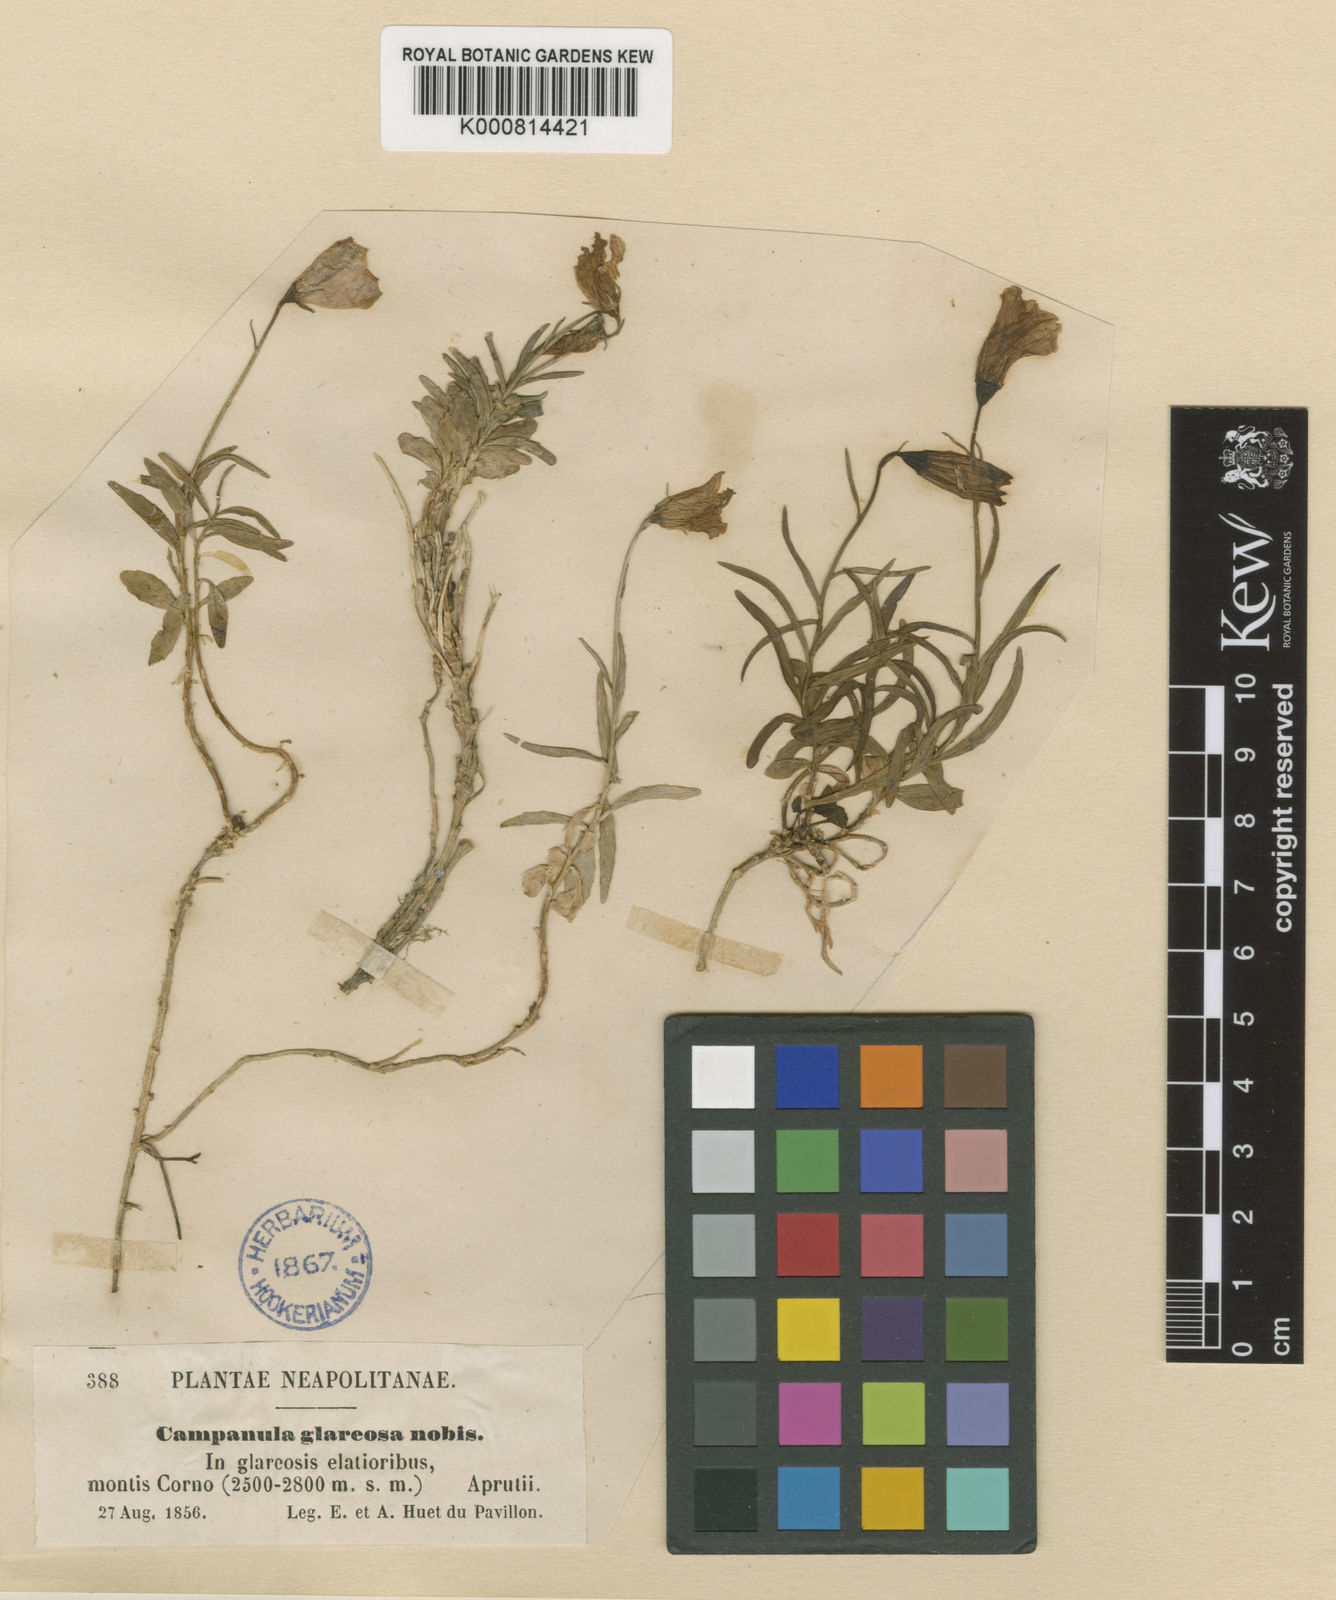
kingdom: Plantae
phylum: Tracheophyta
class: Magnoliopsida
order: Asterales
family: Campanulaceae
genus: Campanula
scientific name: Campanula cespitosa
